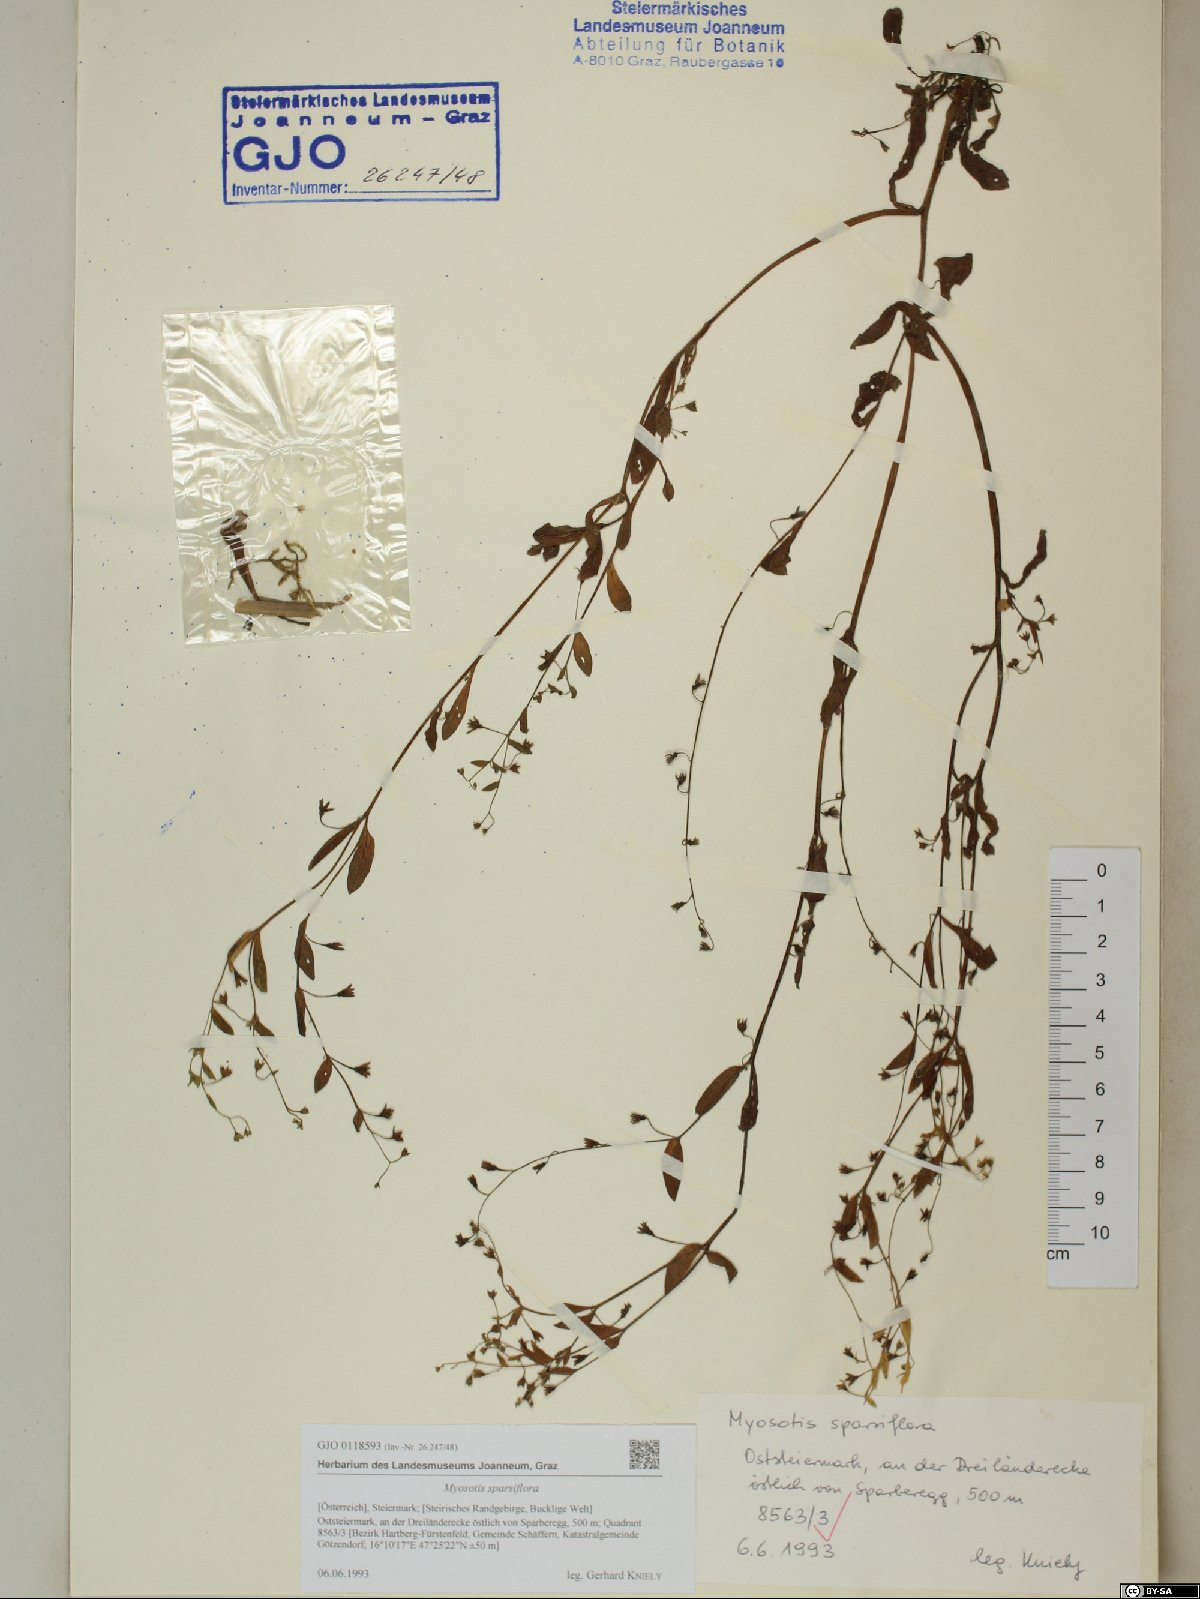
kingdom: Plantae
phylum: Tracheophyta
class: Magnoliopsida
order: Boraginales
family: Boraginaceae
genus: Myosotis
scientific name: Myosotis sparsiflora
